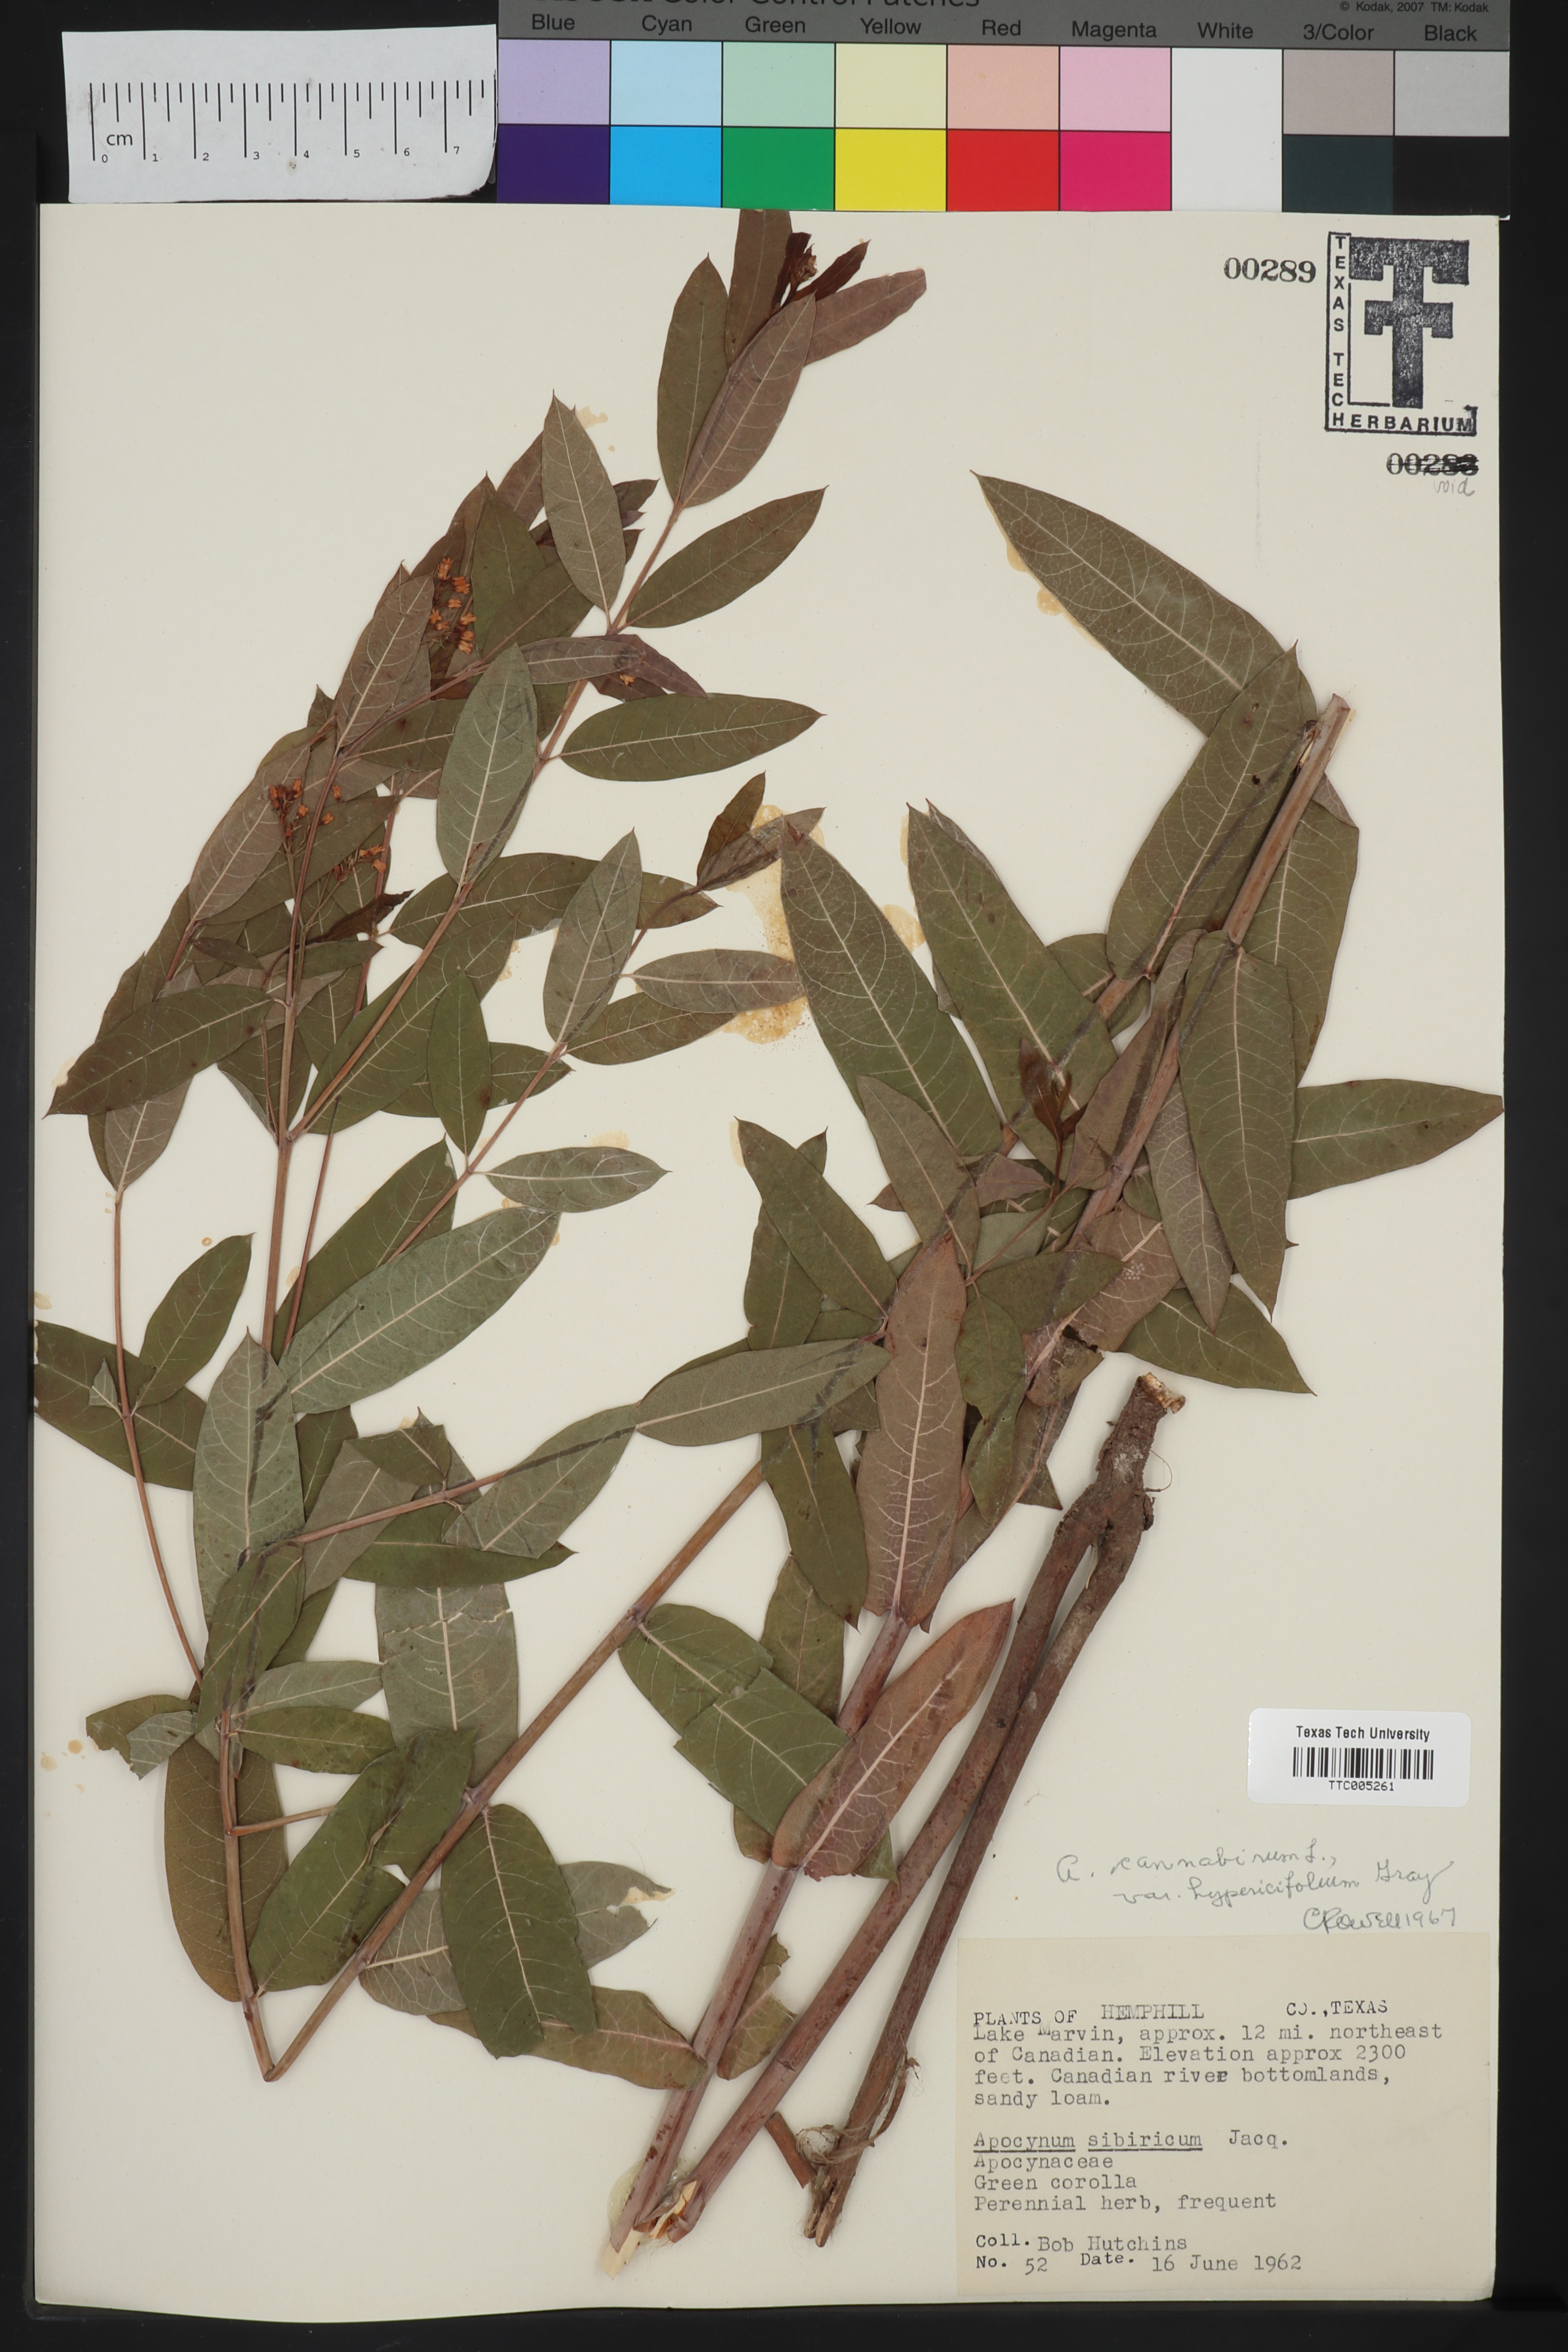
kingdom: Plantae
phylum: Tracheophyta
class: Magnoliopsida
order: Gentianales
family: Apocynaceae
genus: Apocynum
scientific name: Apocynum cannabinum
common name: Hemp dogbane
